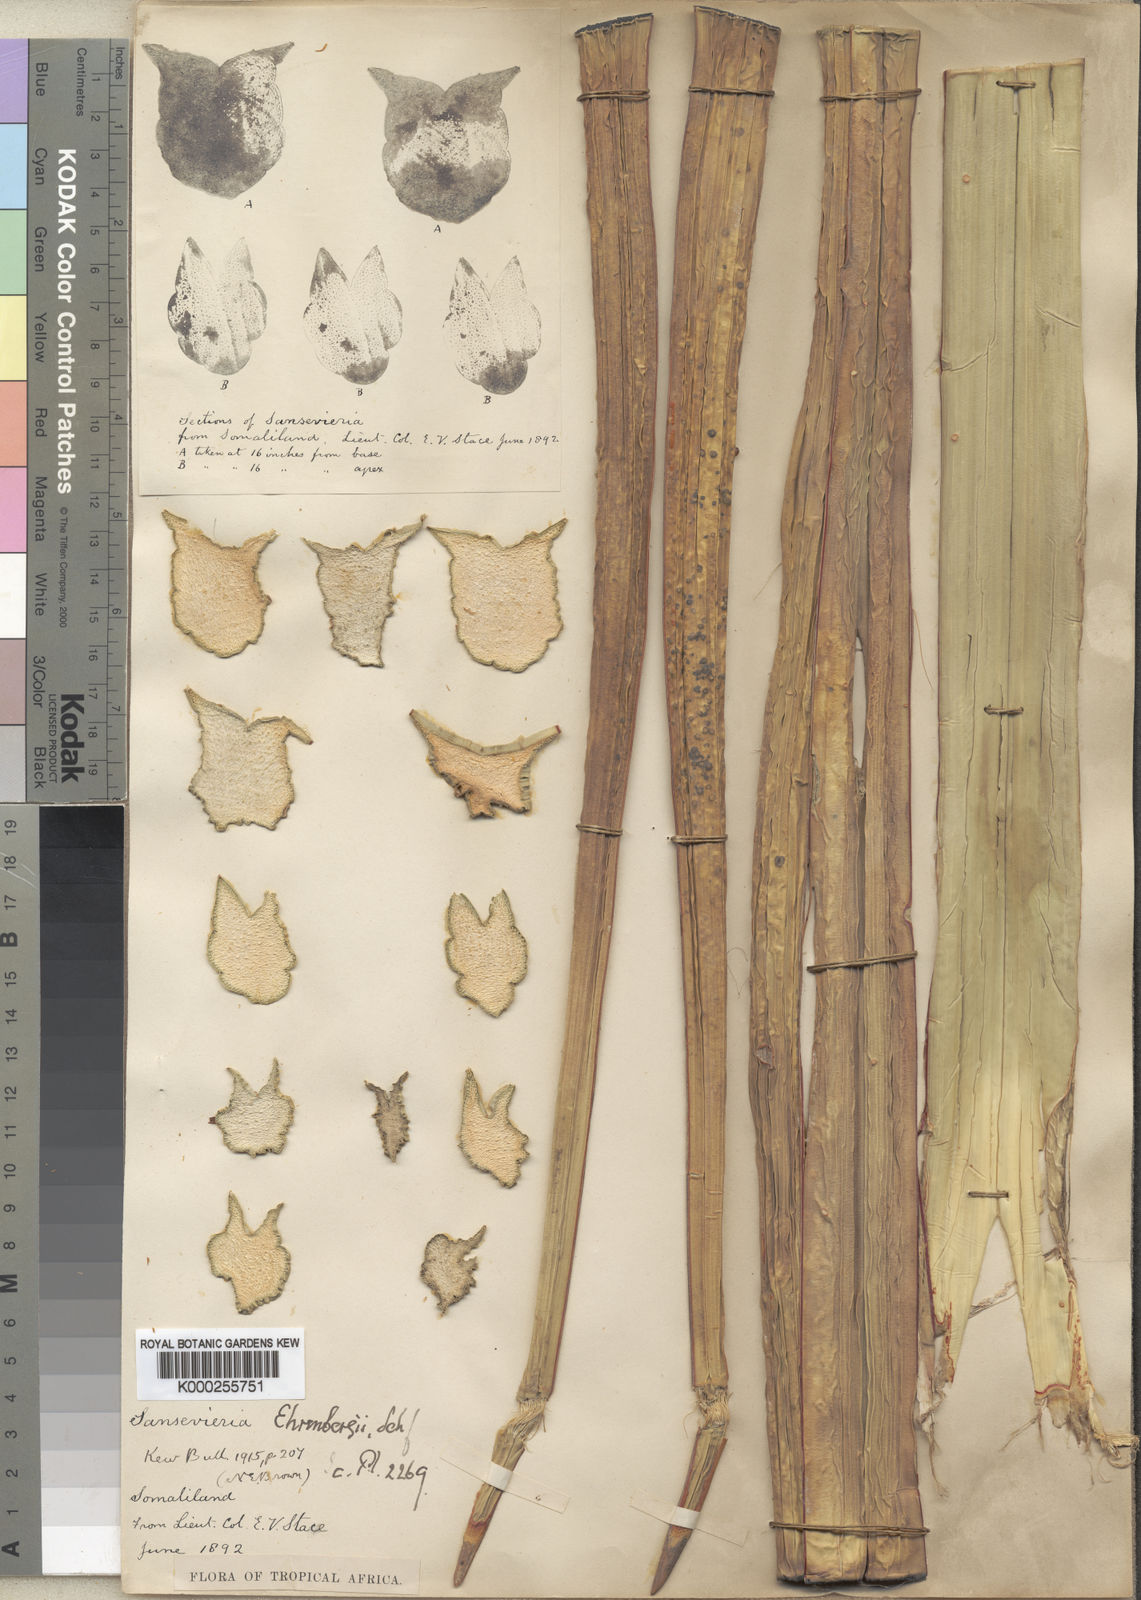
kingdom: Plantae
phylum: Tracheophyta
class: Liliopsida
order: Asparagales
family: Asparagaceae
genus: Dracaena
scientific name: Dracaena hanningtonii
